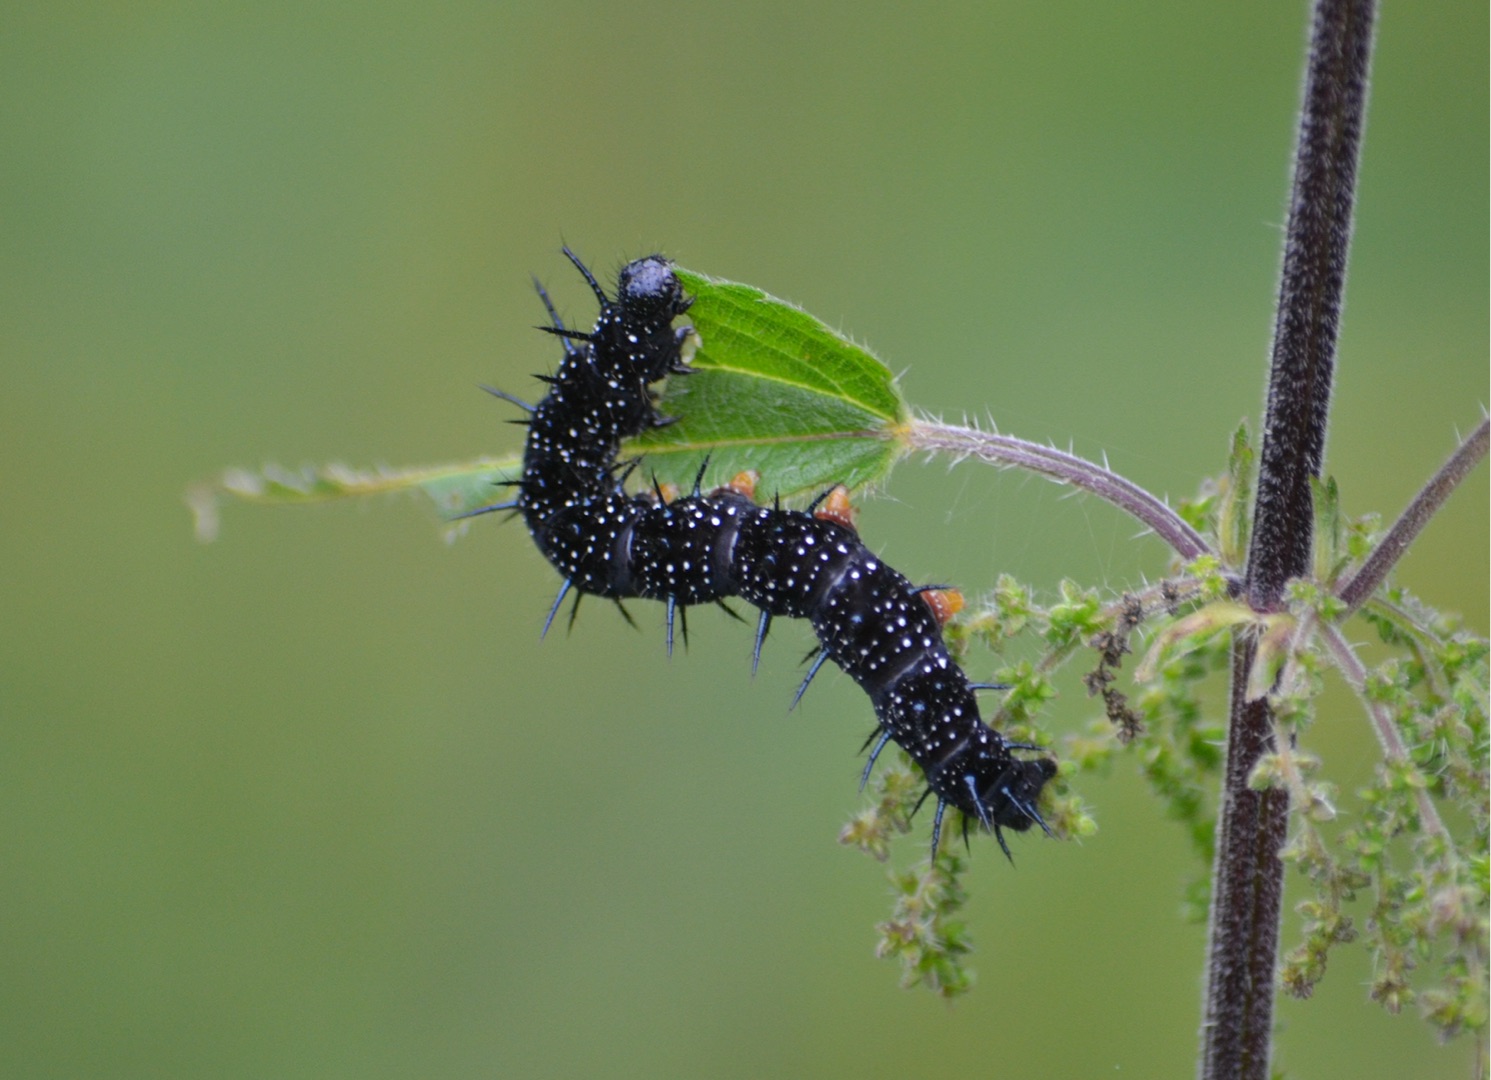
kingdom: Animalia
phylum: Arthropoda
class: Insecta
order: Lepidoptera
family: Nymphalidae
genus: Aglais
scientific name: Aglais io
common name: Dagpåfugleøje
